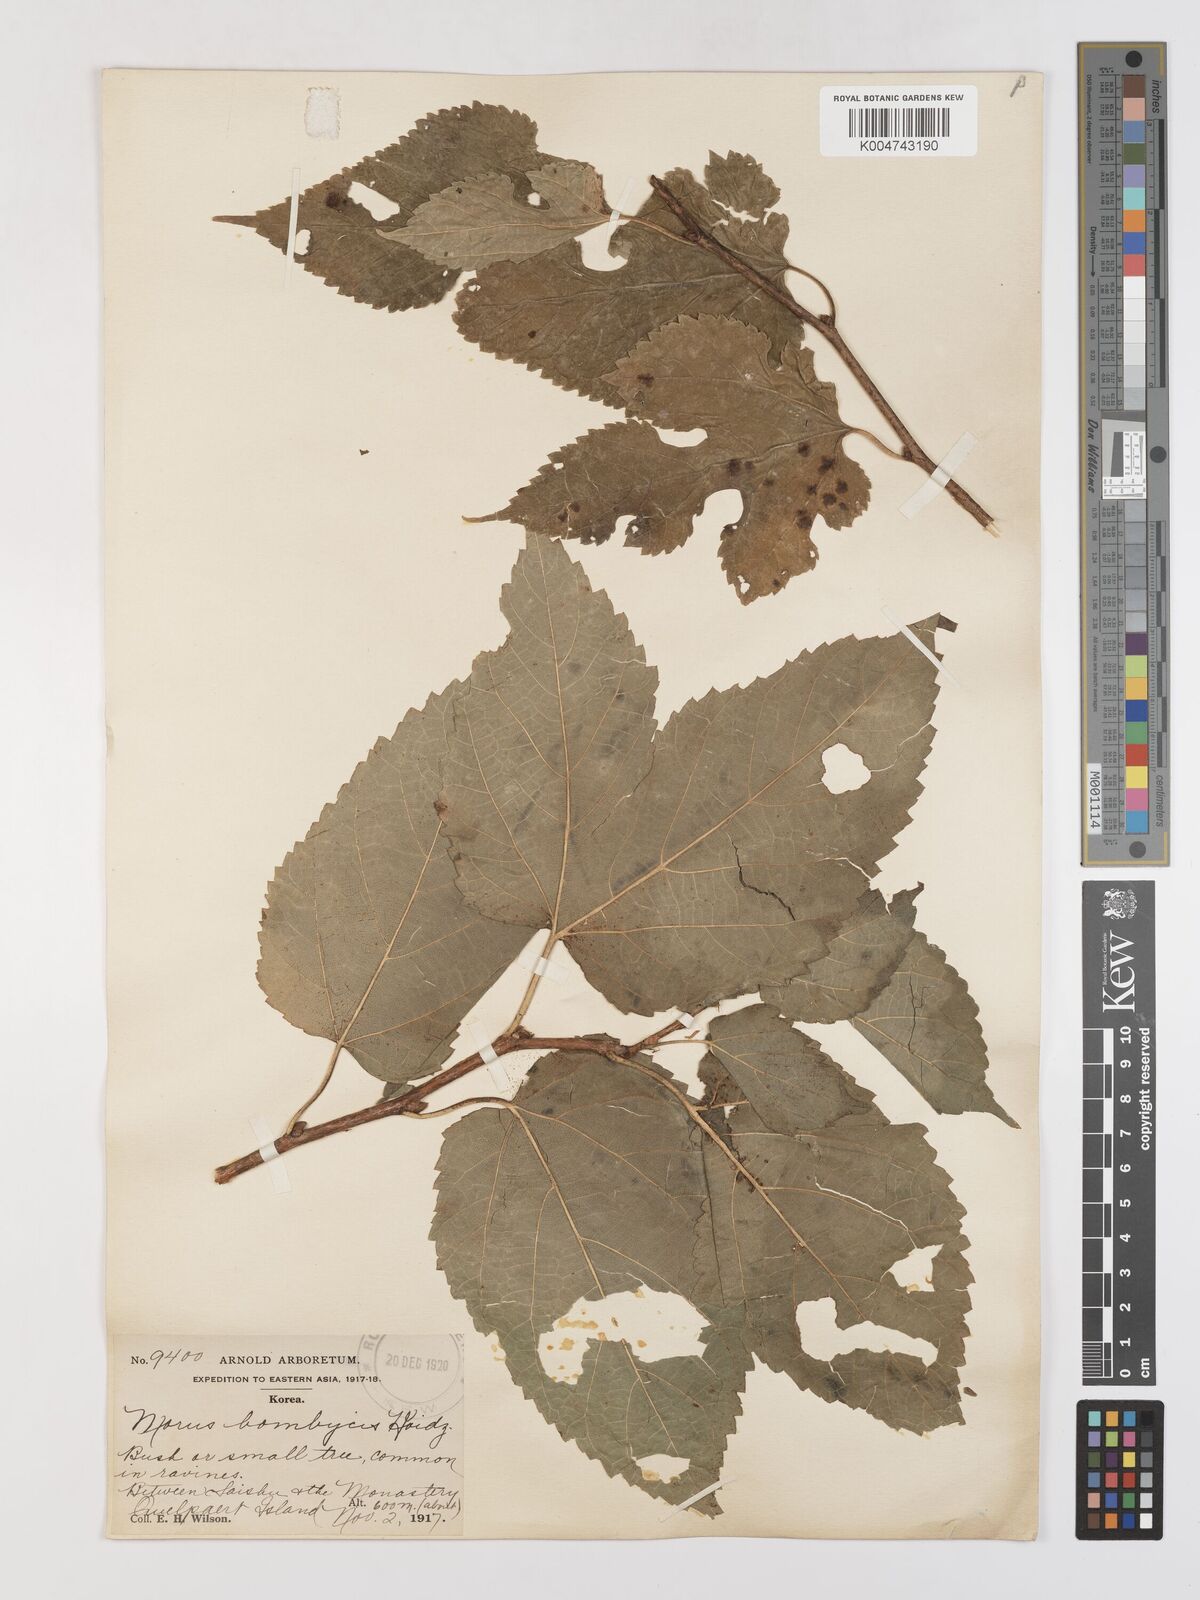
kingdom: Plantae
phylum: Tracheophyta
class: Magnoliopsida
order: Rosales
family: Moraceae
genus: Morus
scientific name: Morus indica
